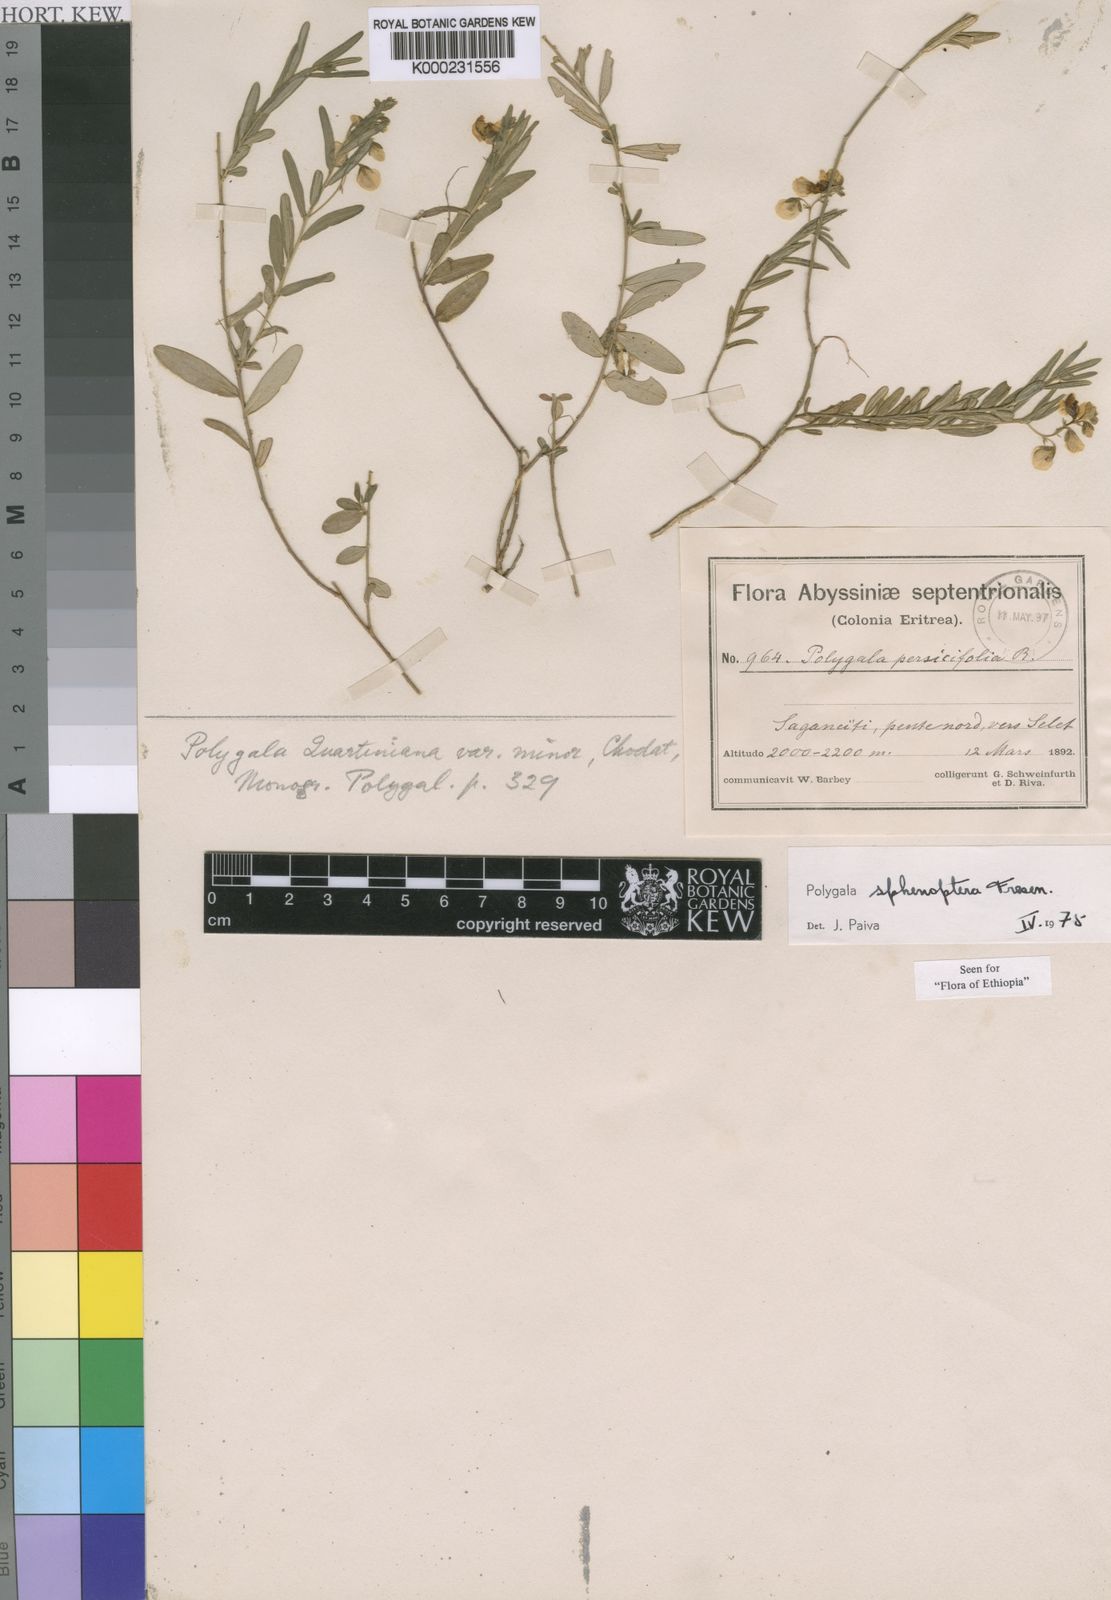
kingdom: Plantae
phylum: Tracheophyta
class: Magnoliopsida
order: Fabales
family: Polygalaceae
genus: Polygala
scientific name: Polygala sphenoptera
